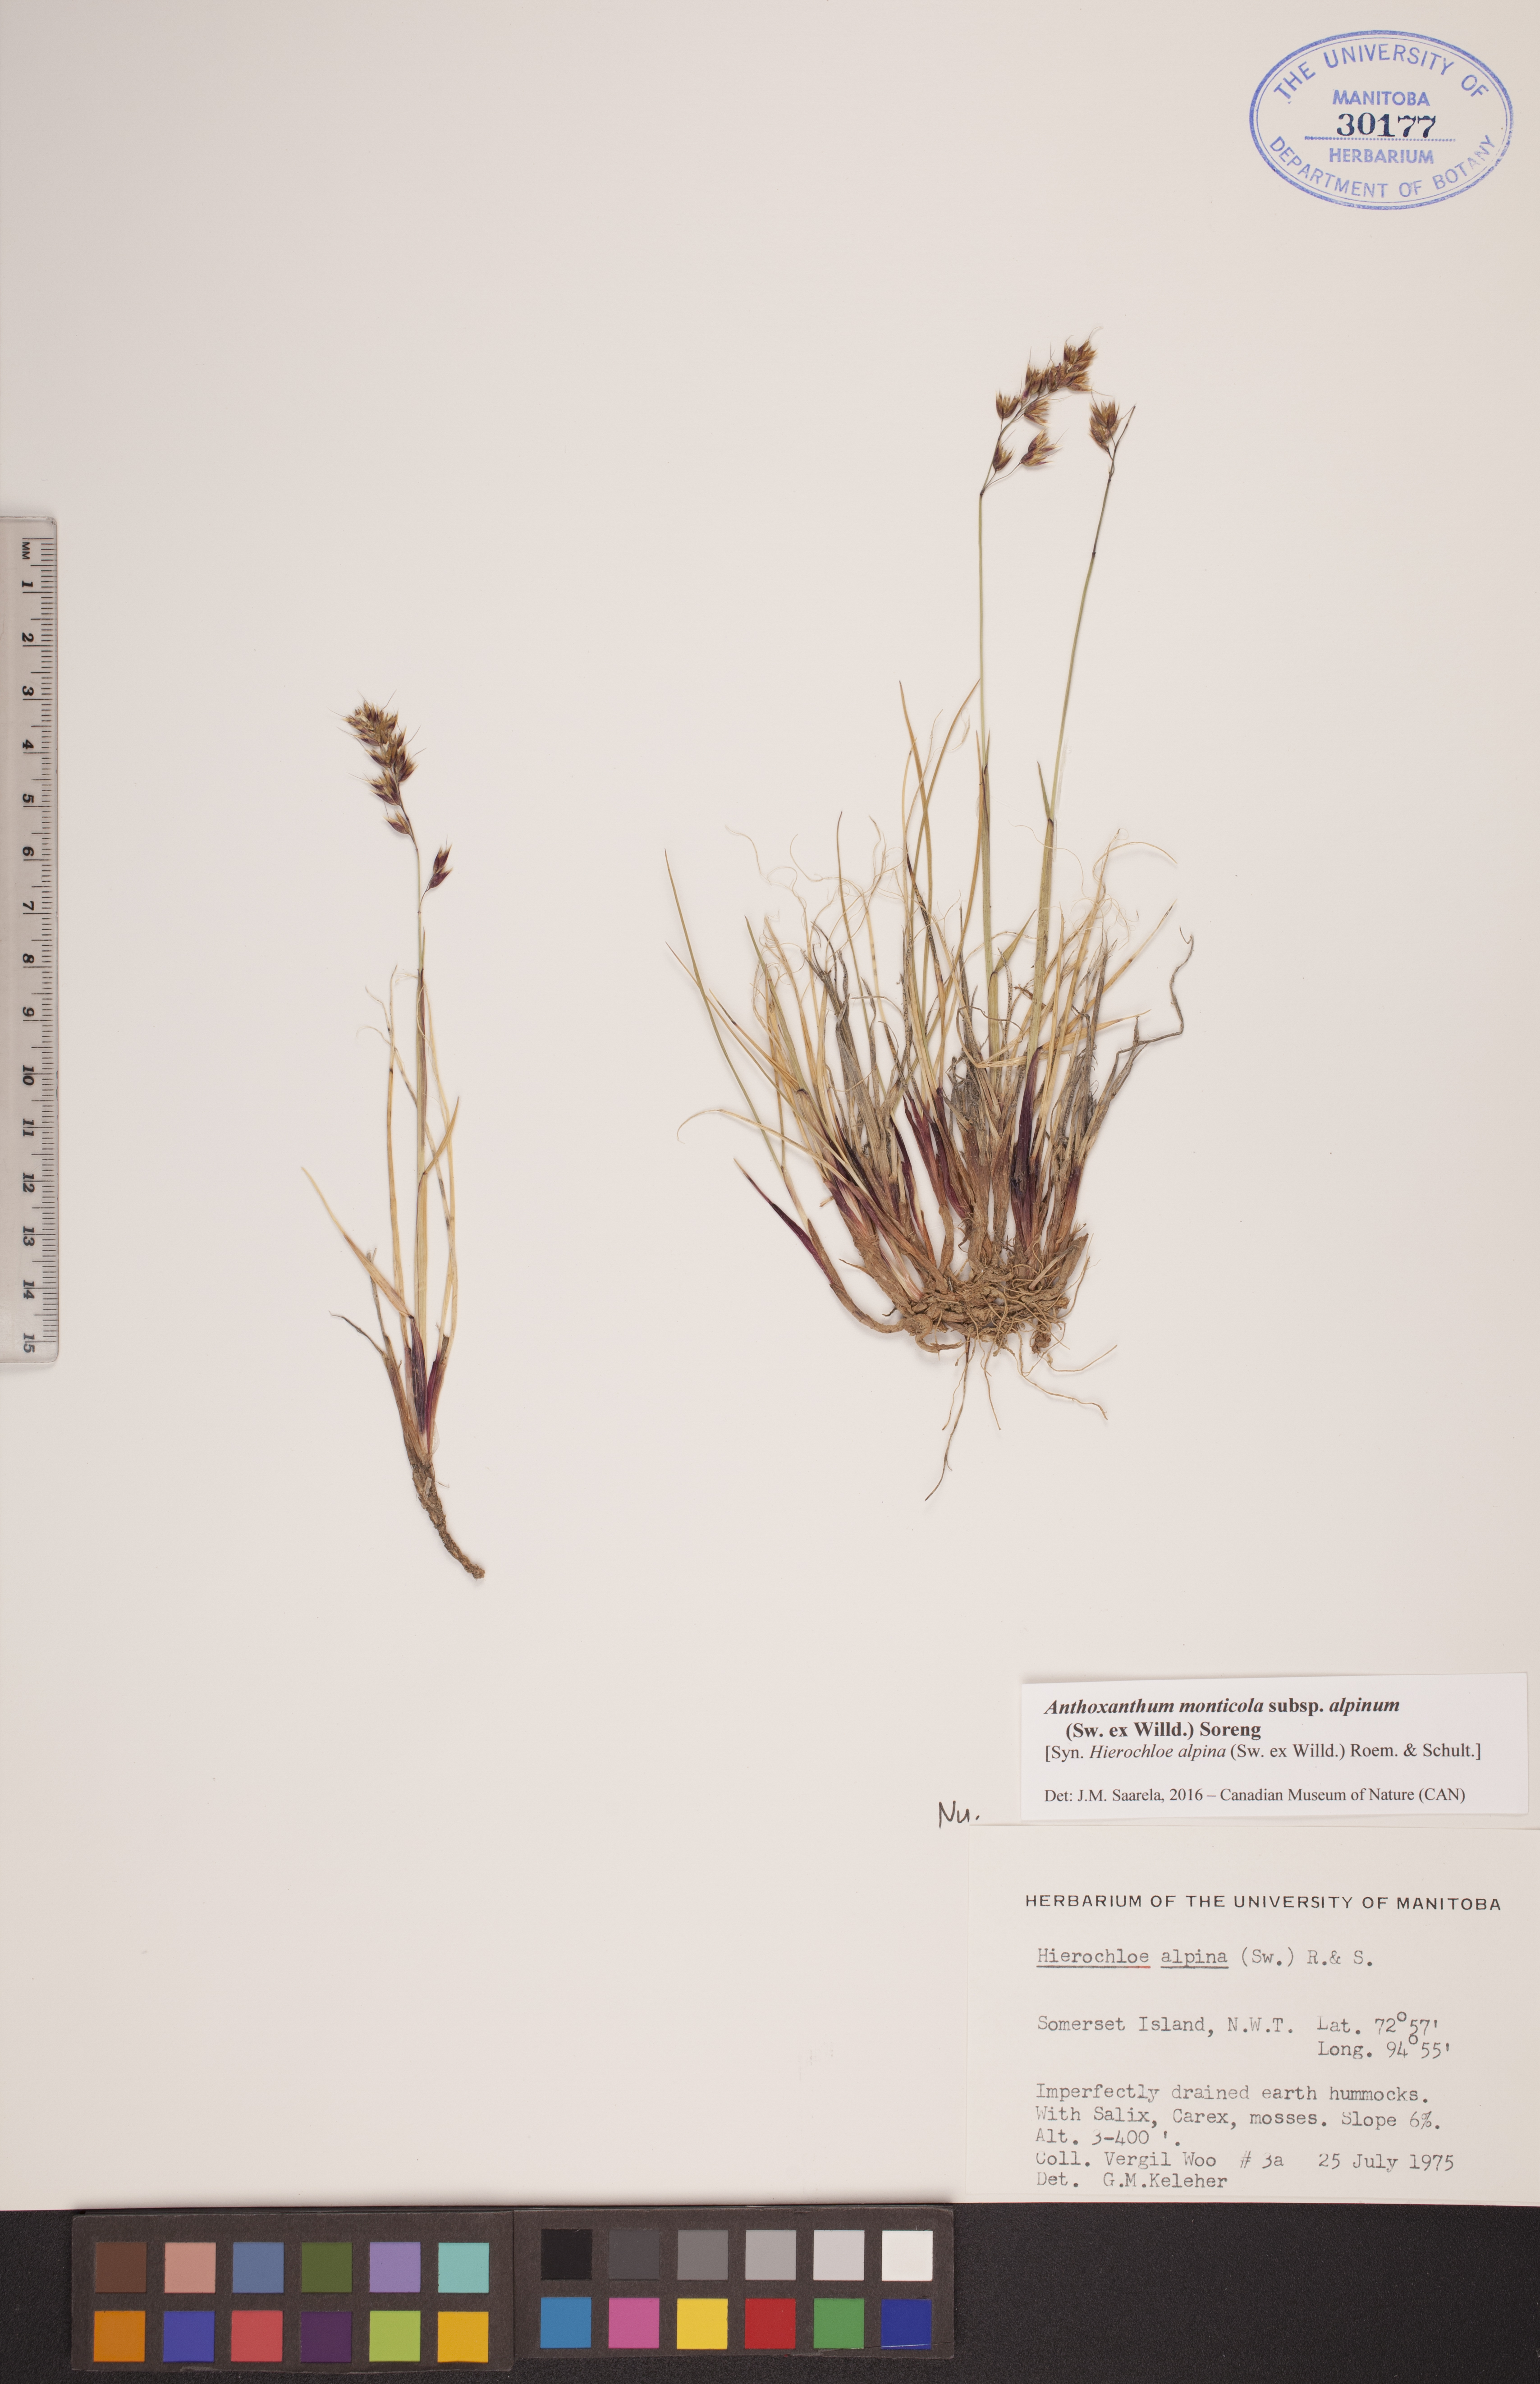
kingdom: Plantae
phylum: Tracheophyta
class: Liliopsida
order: Poales
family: Poaceae
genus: Anthoxanthum
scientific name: Anthoxanthum monticola
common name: Alpine sweetgrass
